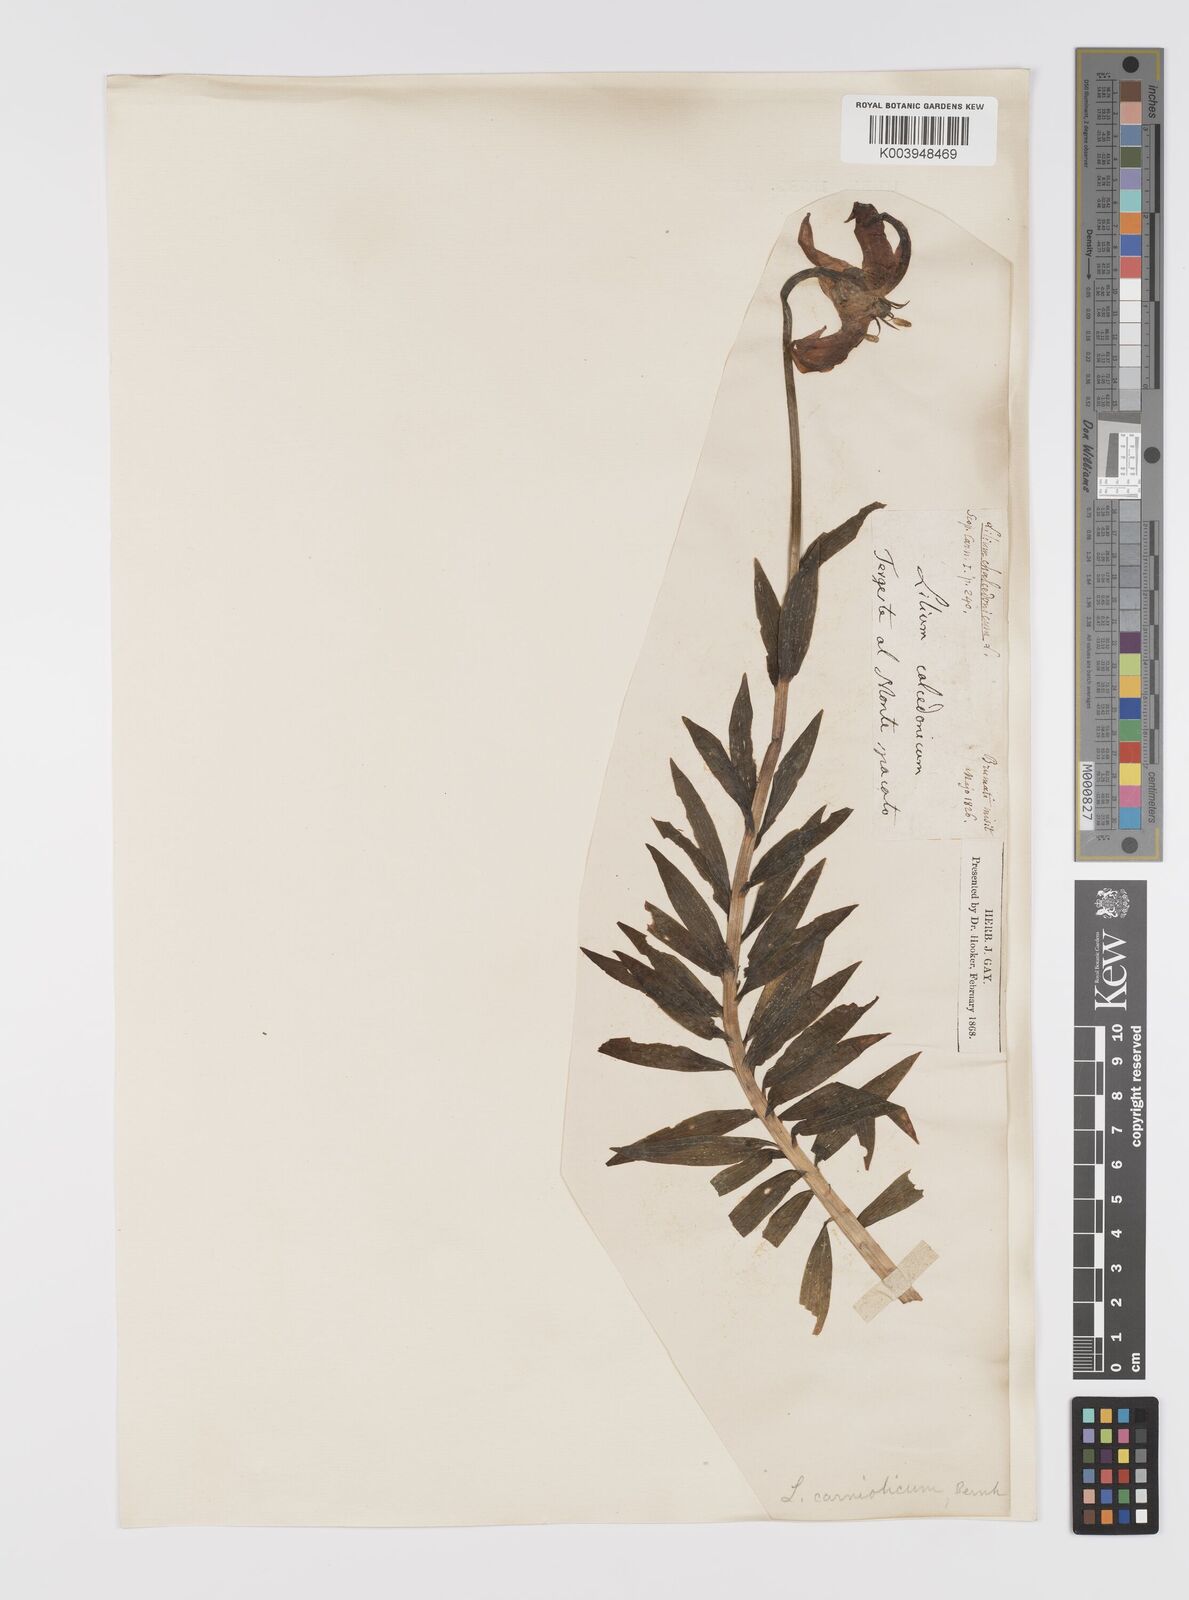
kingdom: Plantae
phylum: Tracheophyta
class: Liliopsida
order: Liliales
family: Liliaceae
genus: Lilium
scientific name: Lilium
